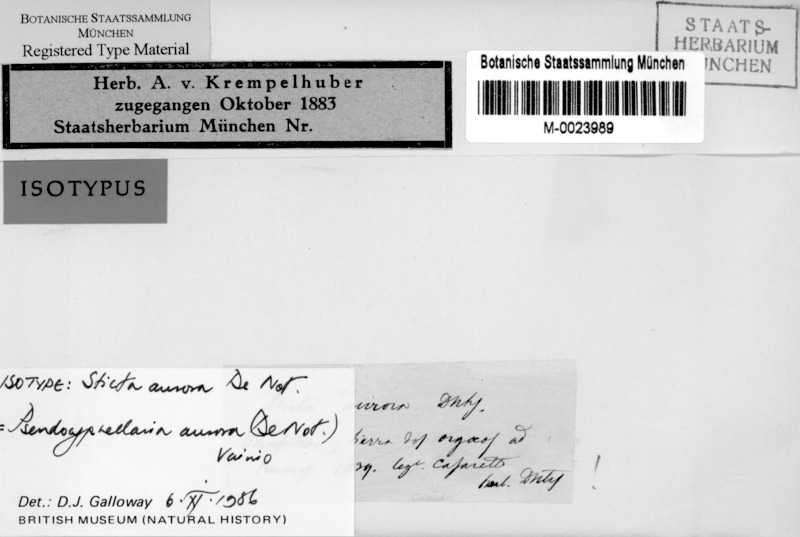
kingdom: Fungi
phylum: Ascomycota
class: Lecanoromycetes
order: Peltigerales
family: Lobariaceae
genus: Pseudocyphellaria
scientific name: Pseudocyphellaria aurata
